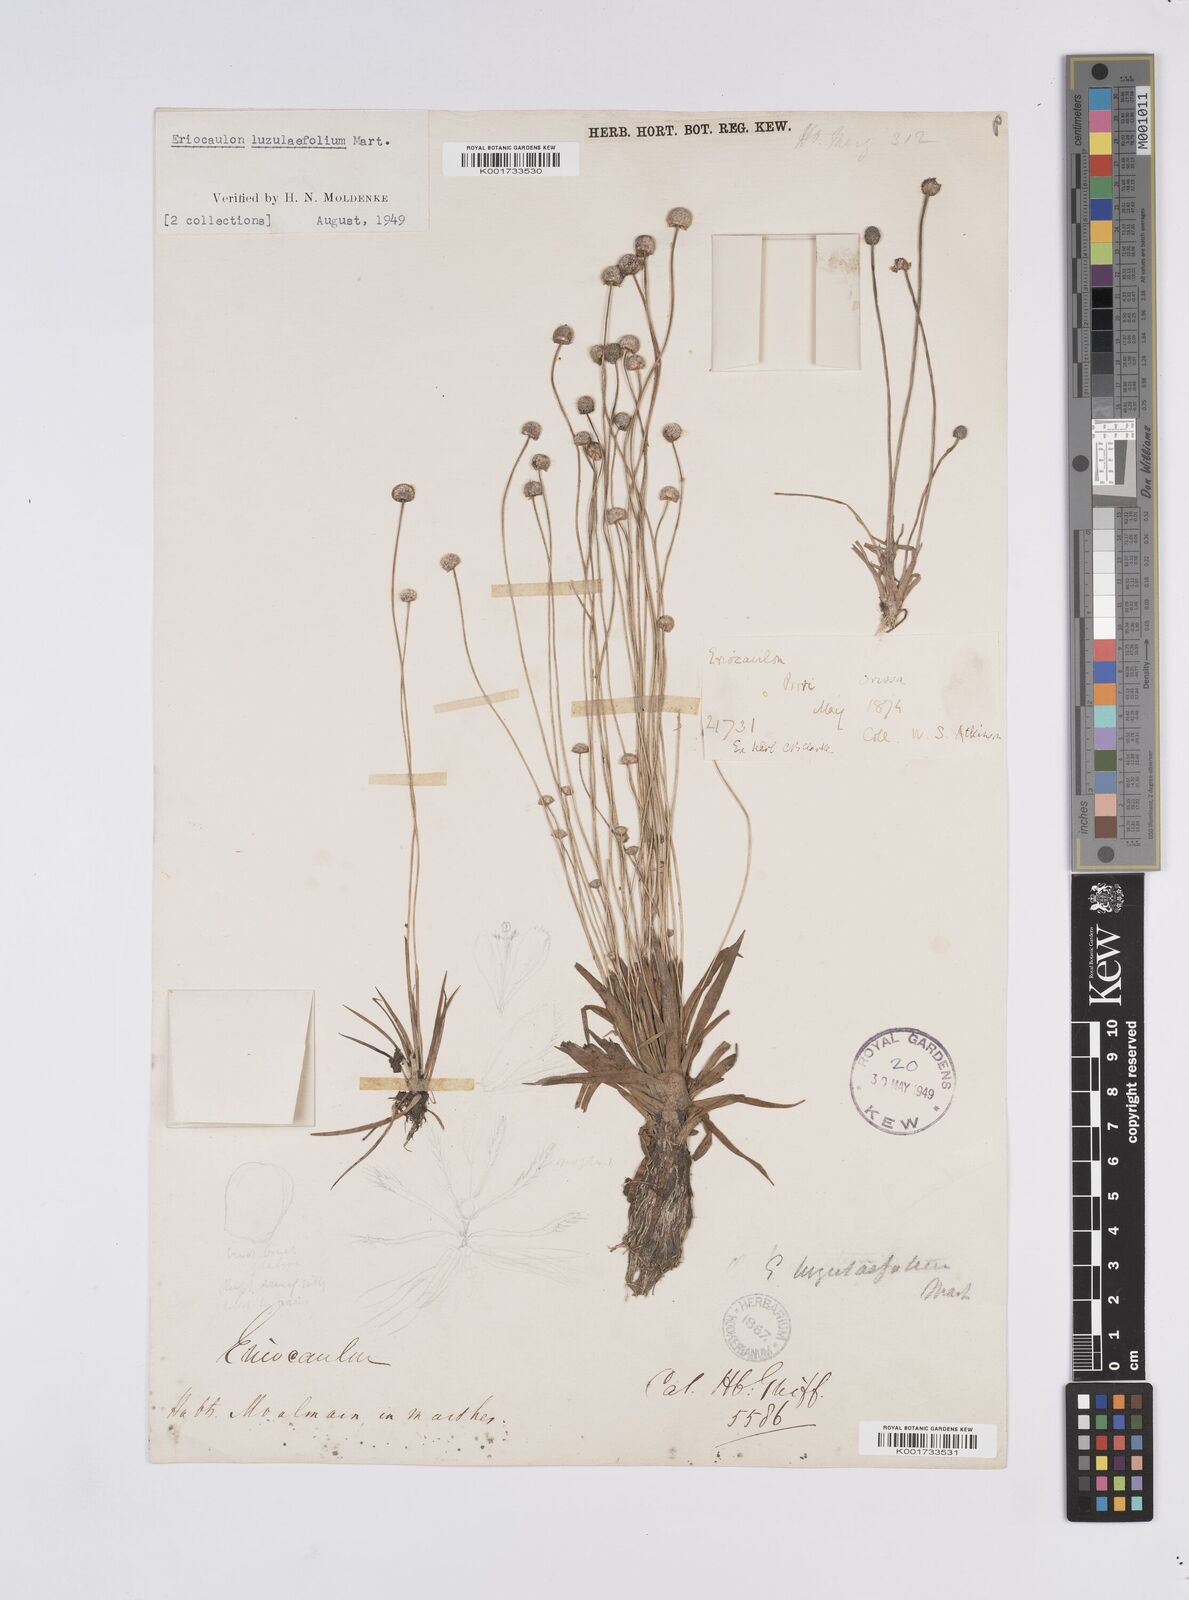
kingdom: Plantae
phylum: Tracheophyta
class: Liliopsida
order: Poales
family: Eriocaulaceae
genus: Eriocaulon
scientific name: Eriocaulon nepalense
